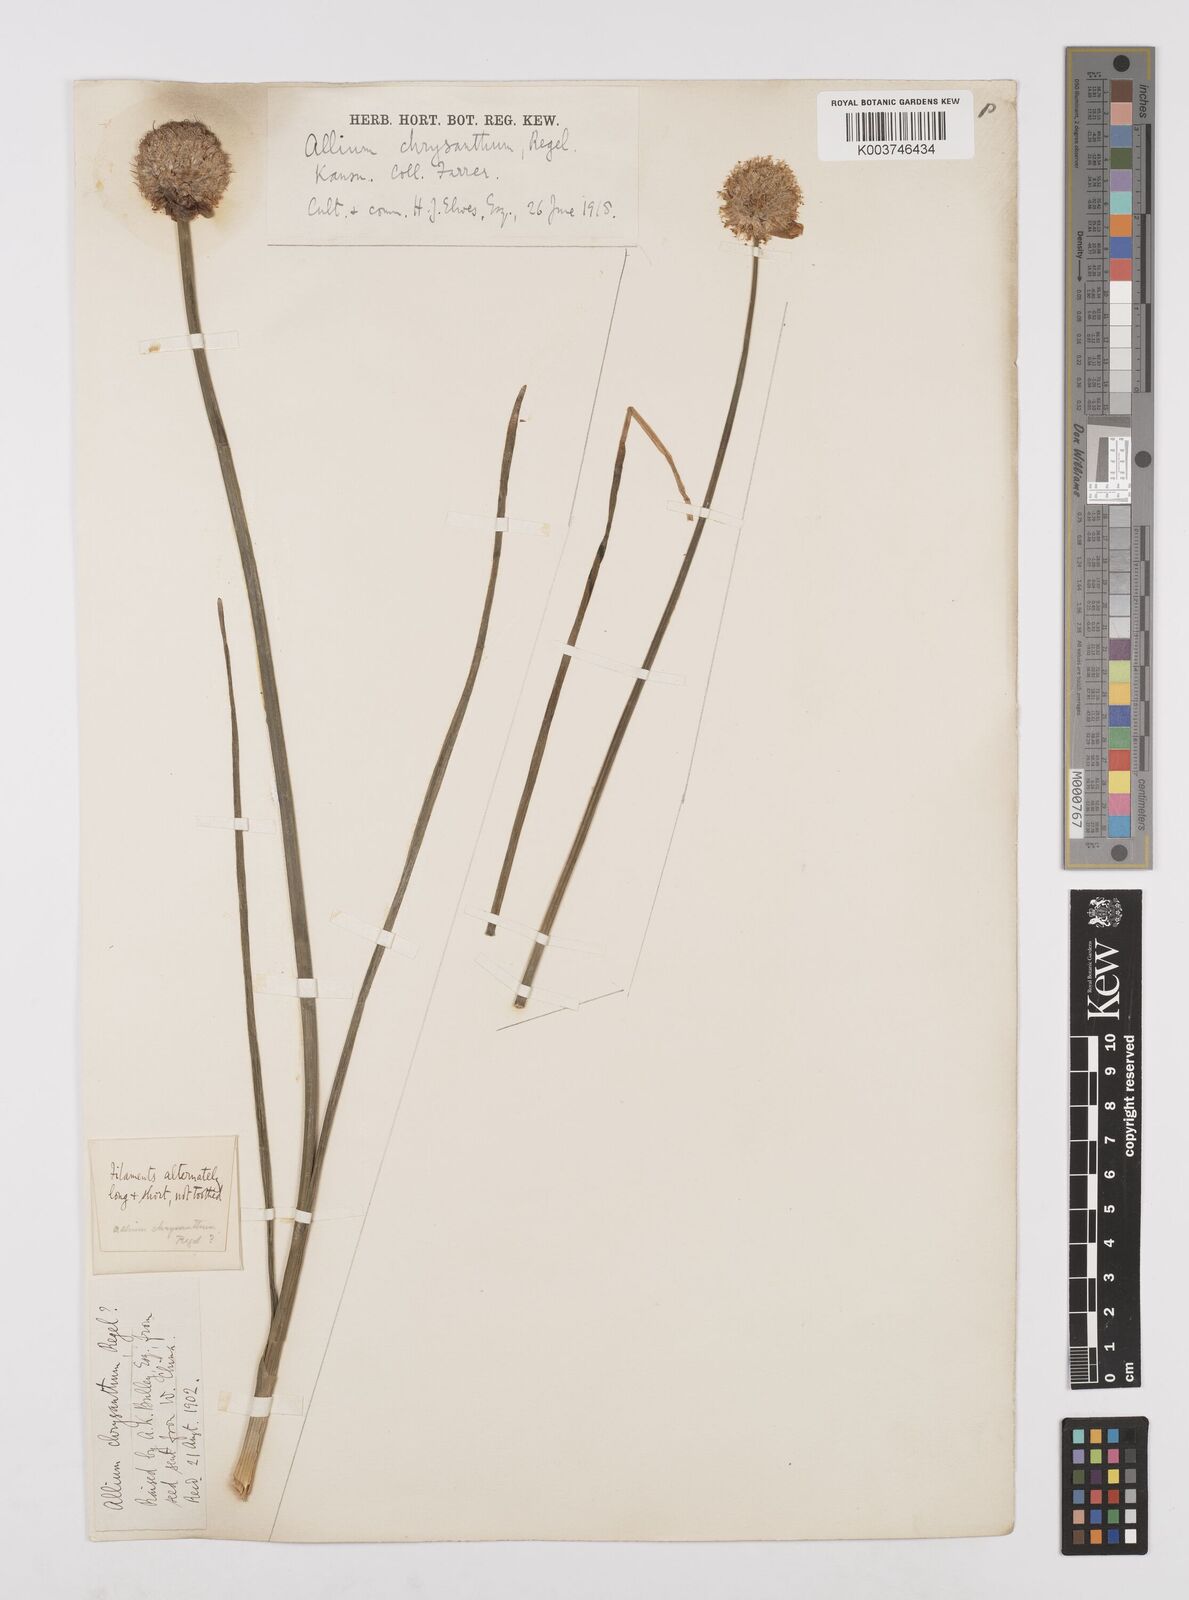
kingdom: Plantae
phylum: Tracheophyta
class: Liliopsida
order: Asparagales
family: Amaryllidaceae
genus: Allium
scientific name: Allium chrysanthum
